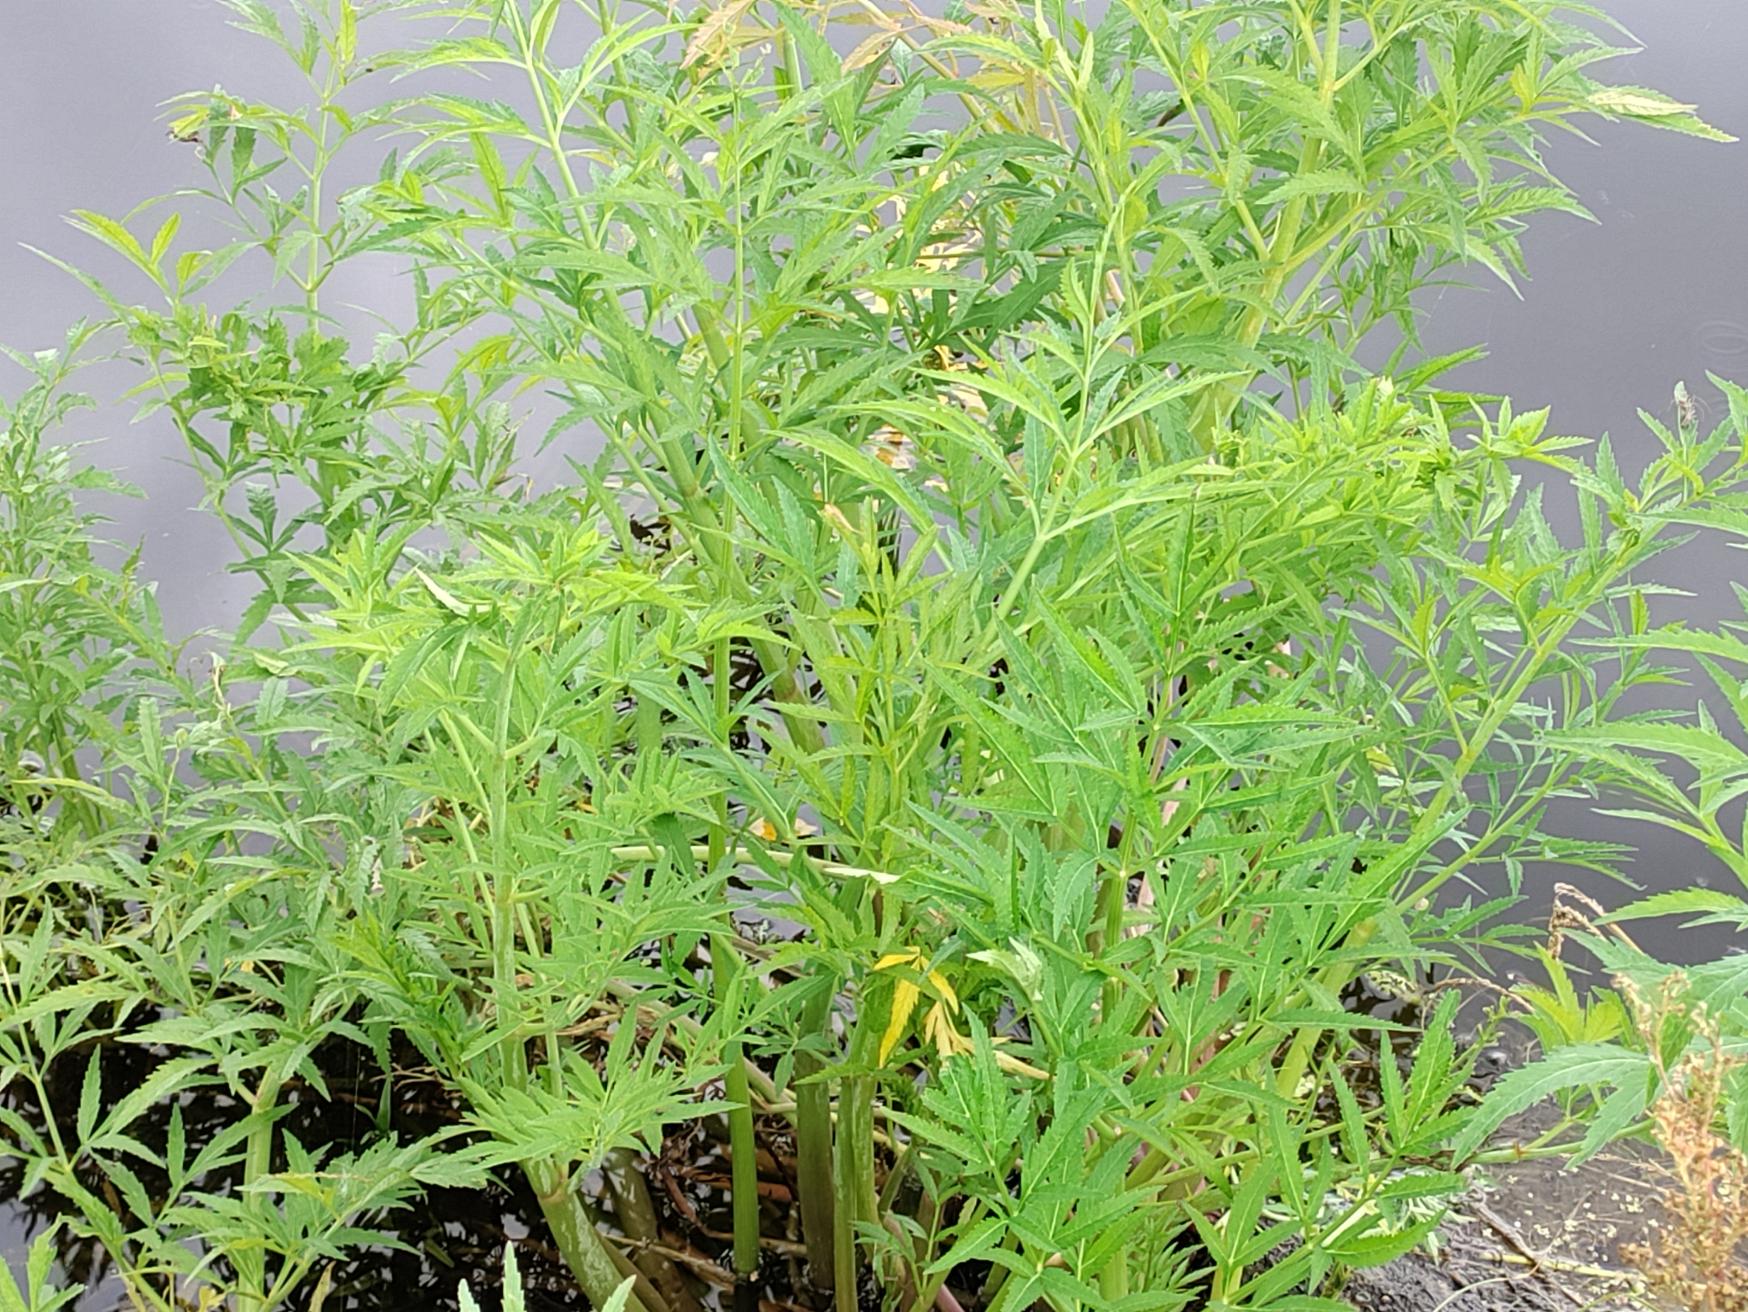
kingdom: Plantae
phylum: Tracheophyta
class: Magnoliopsida
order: Apiales
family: Apiaceae
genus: Cicuta
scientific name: Cicuta virosa
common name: Gifttyde
